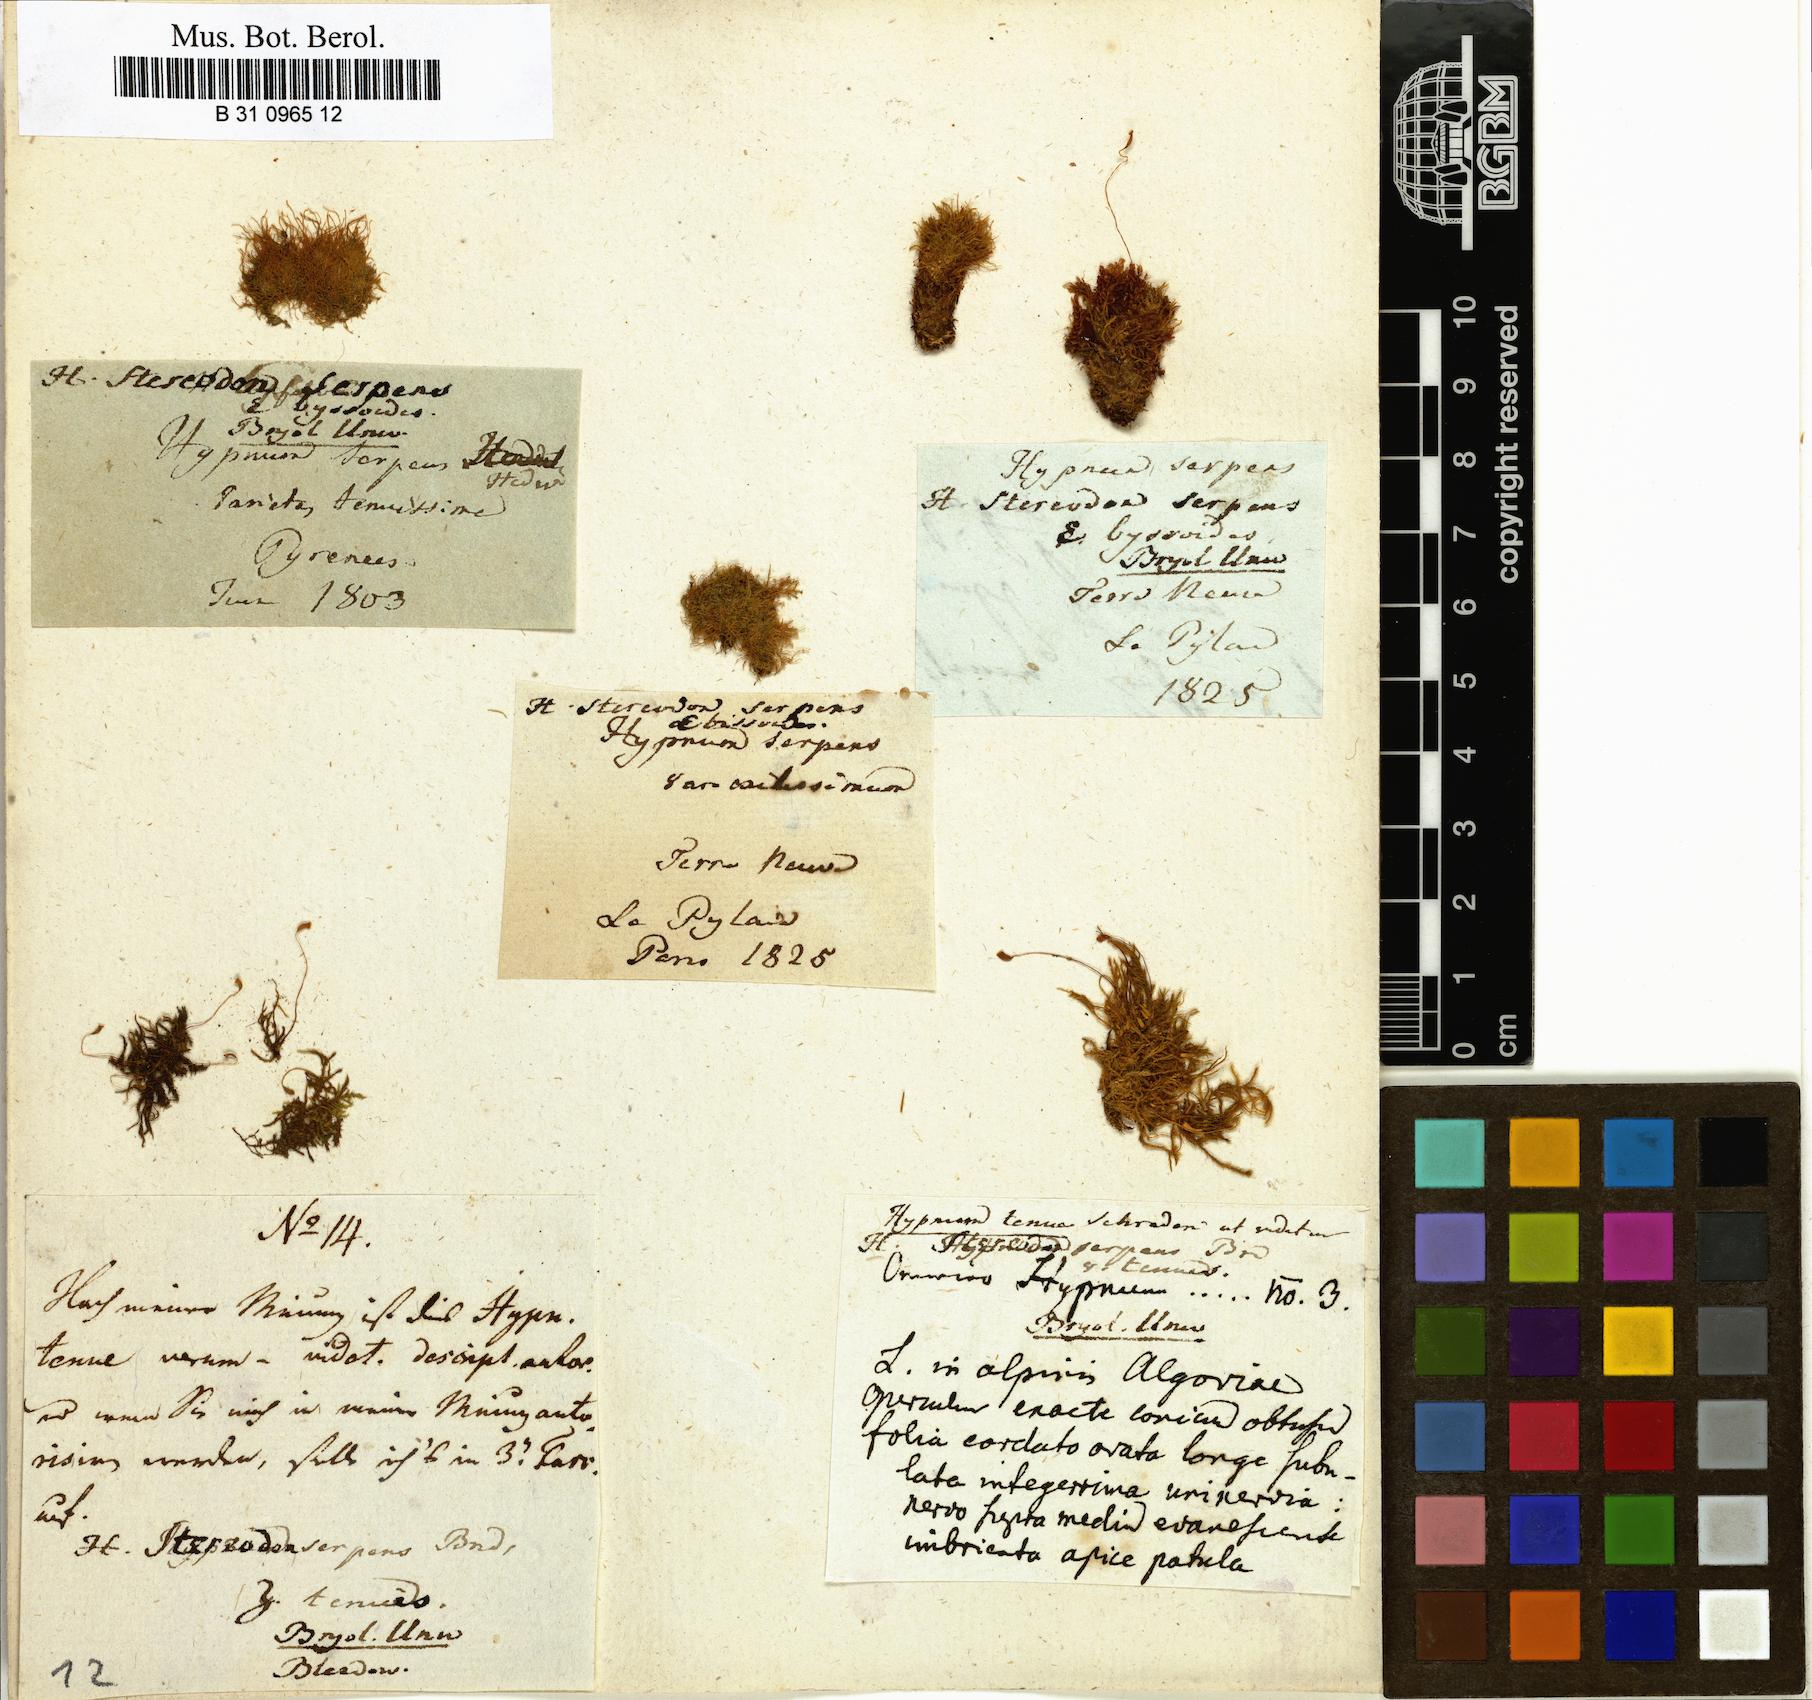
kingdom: Plantae
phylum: Bryophyta
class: Bryopsida
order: Hypnales
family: Amblystegiaceae
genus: Amblystegium
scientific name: Amblystegium serpens
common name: Jurkatzka's feather moss
